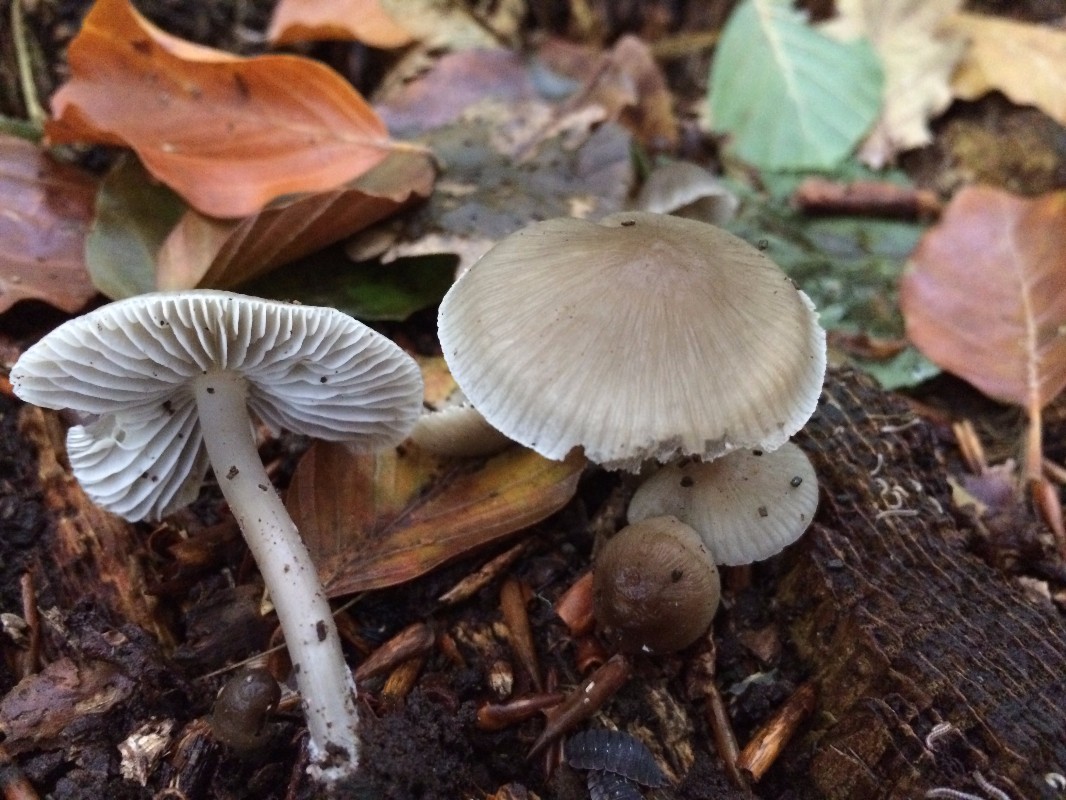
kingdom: Fungi
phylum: Basidiomycota
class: Agaricomycetes
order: Agaricales
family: Mycenaceae
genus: Mycena
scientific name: Mycena galericulata
